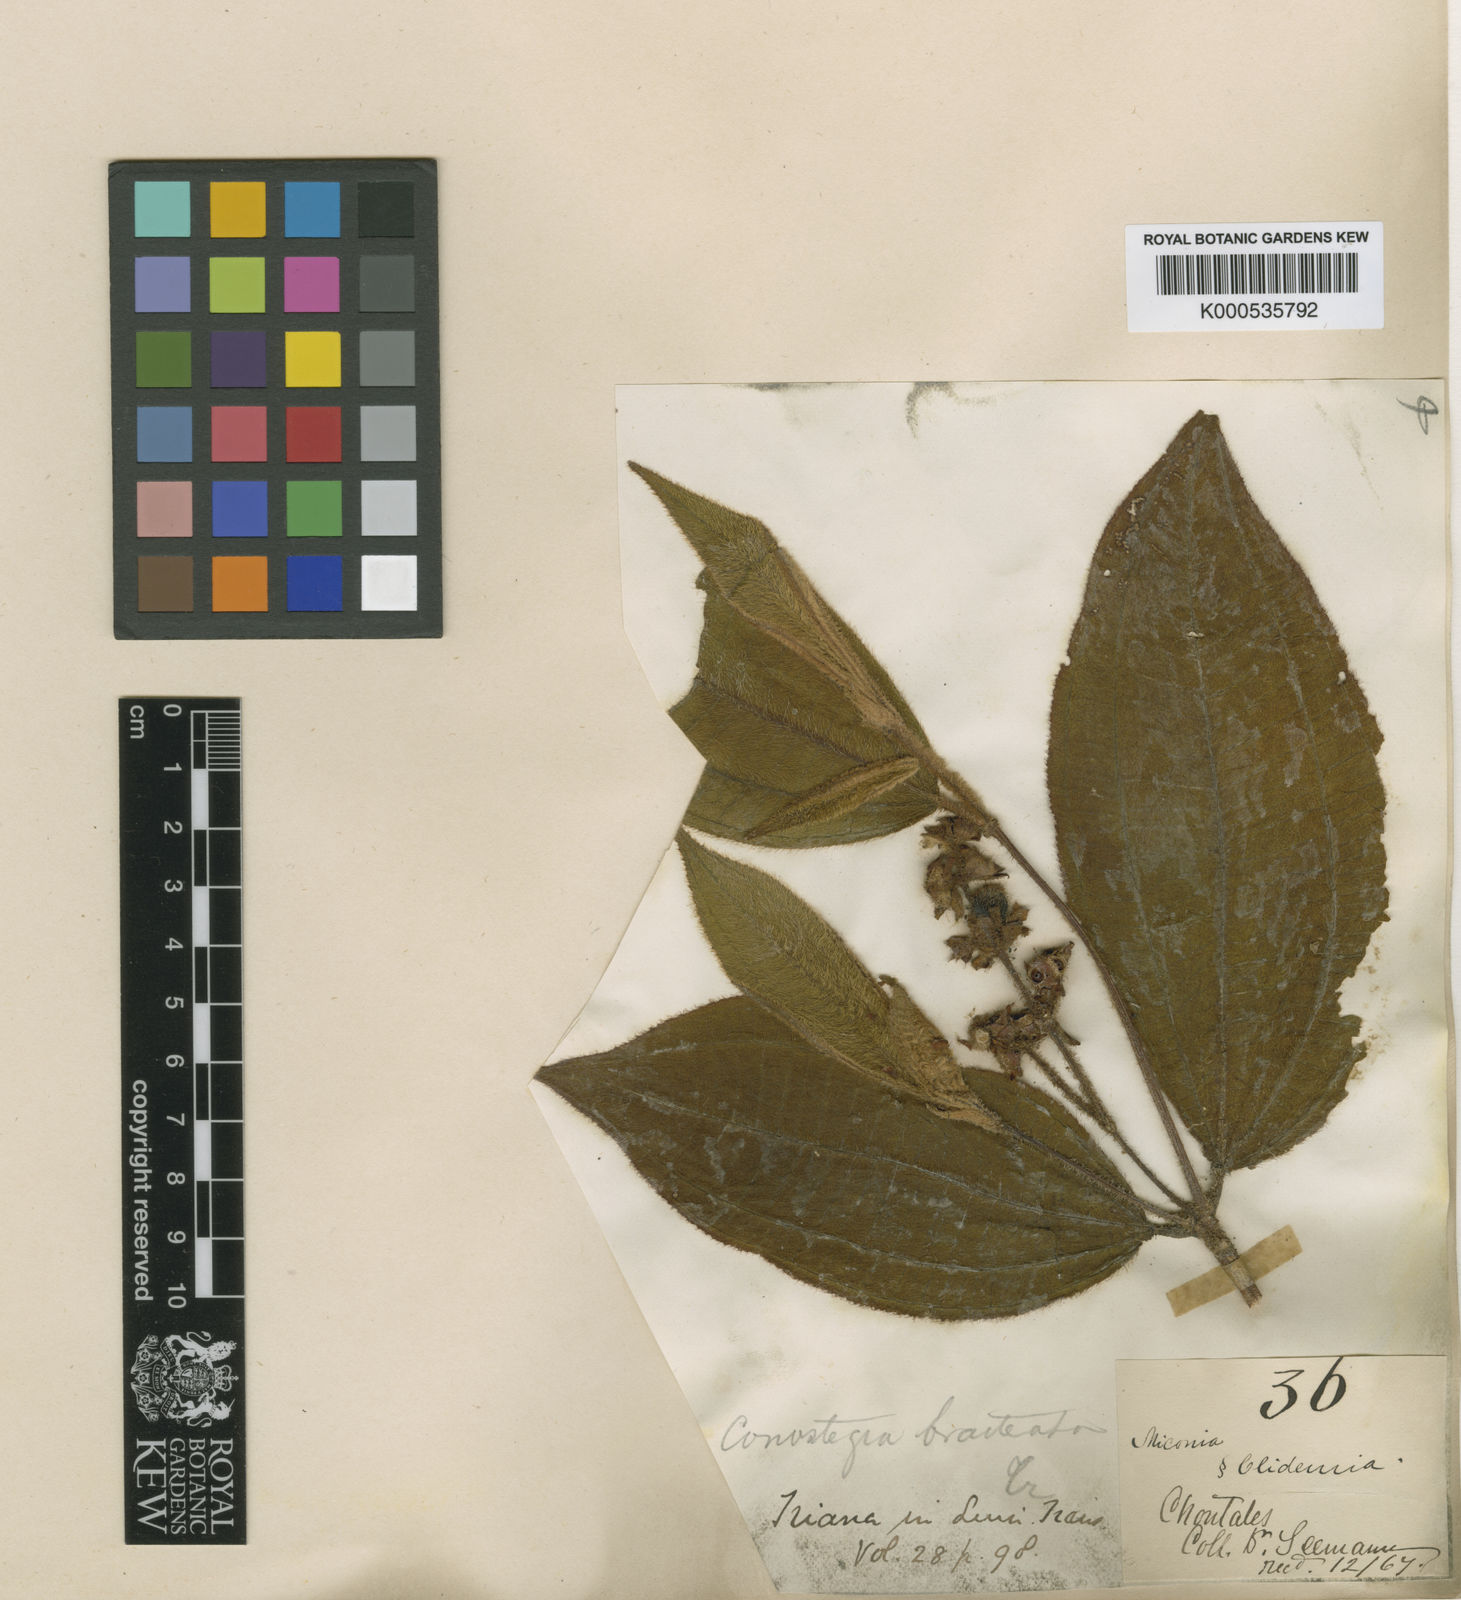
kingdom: Plantae
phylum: Tracheophyta
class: Magnoliopsida
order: Myrtales
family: Melastomataceae
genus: Miconia
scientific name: Miconia conobracteata
